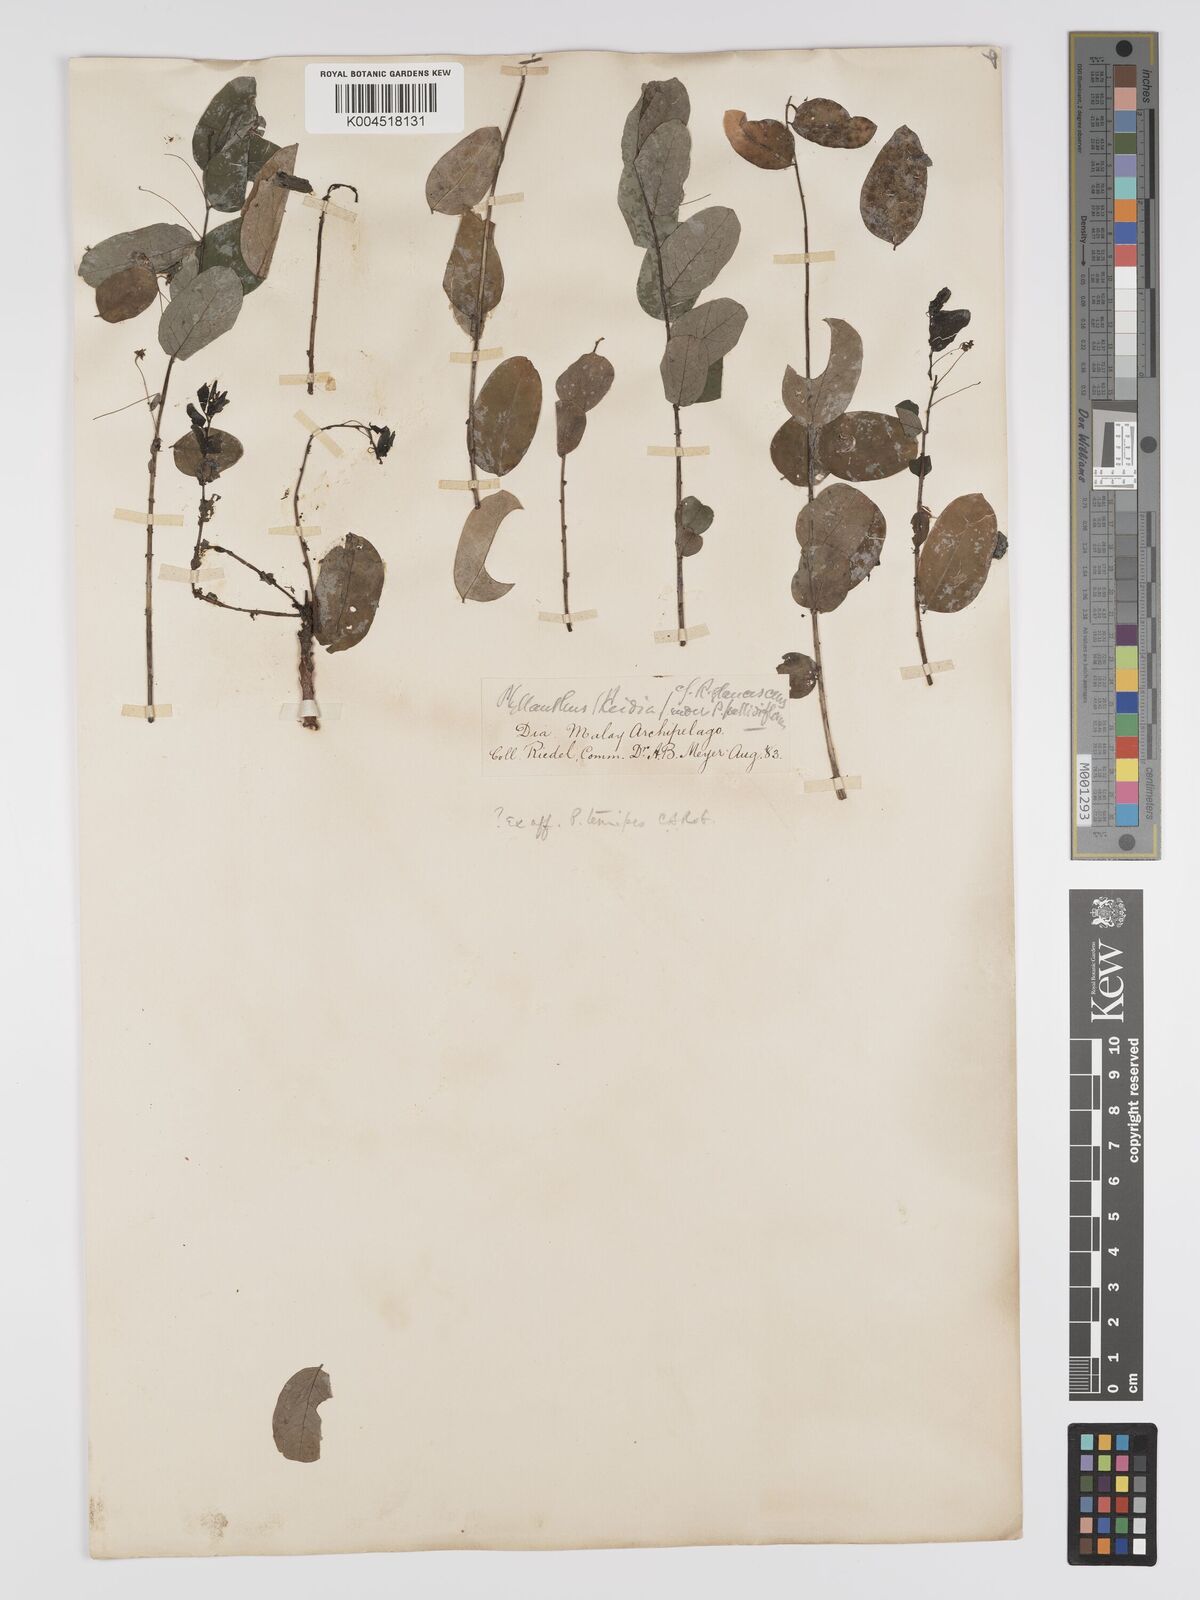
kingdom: Plantae
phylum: Tracheophyta
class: Magnoliopsida
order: Malpighiales
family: Phyllanthaceae
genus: Phyllanthus
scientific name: Phyllanthus
